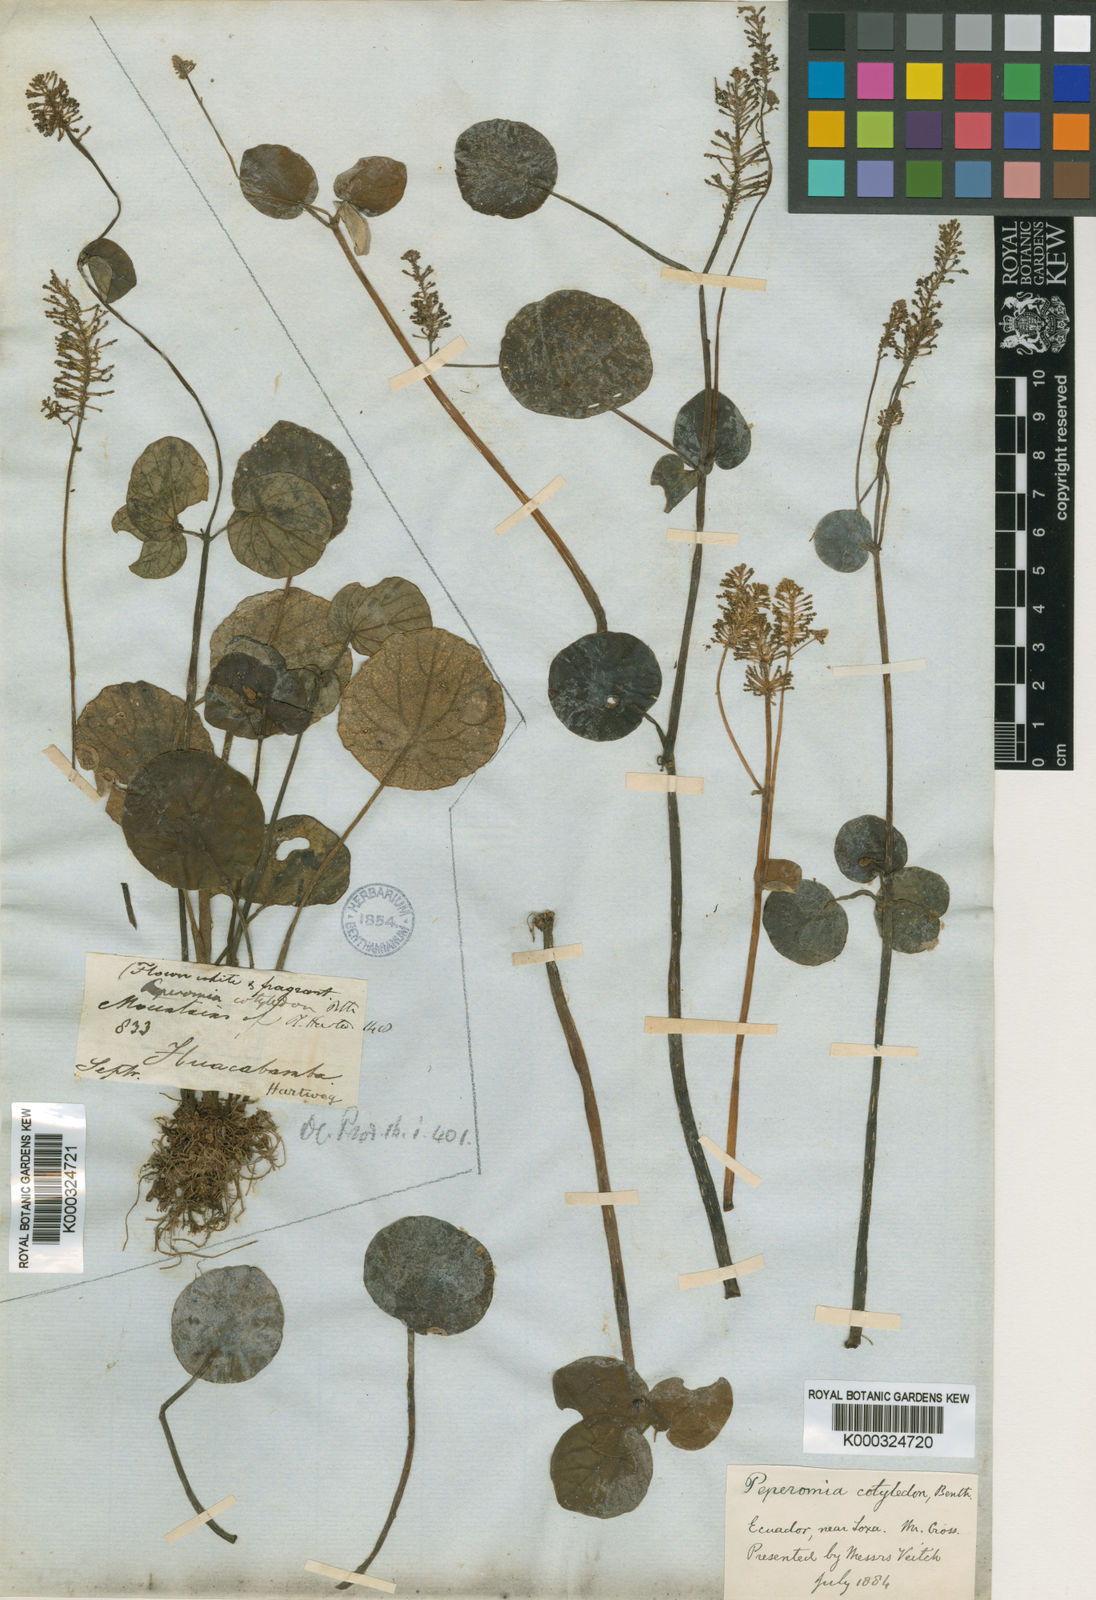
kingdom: Plantae
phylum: Tracheophyta
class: Magnoliopsida
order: Piperales
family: Piperaceae
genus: Peperomia
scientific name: Peperomia cotyledon
